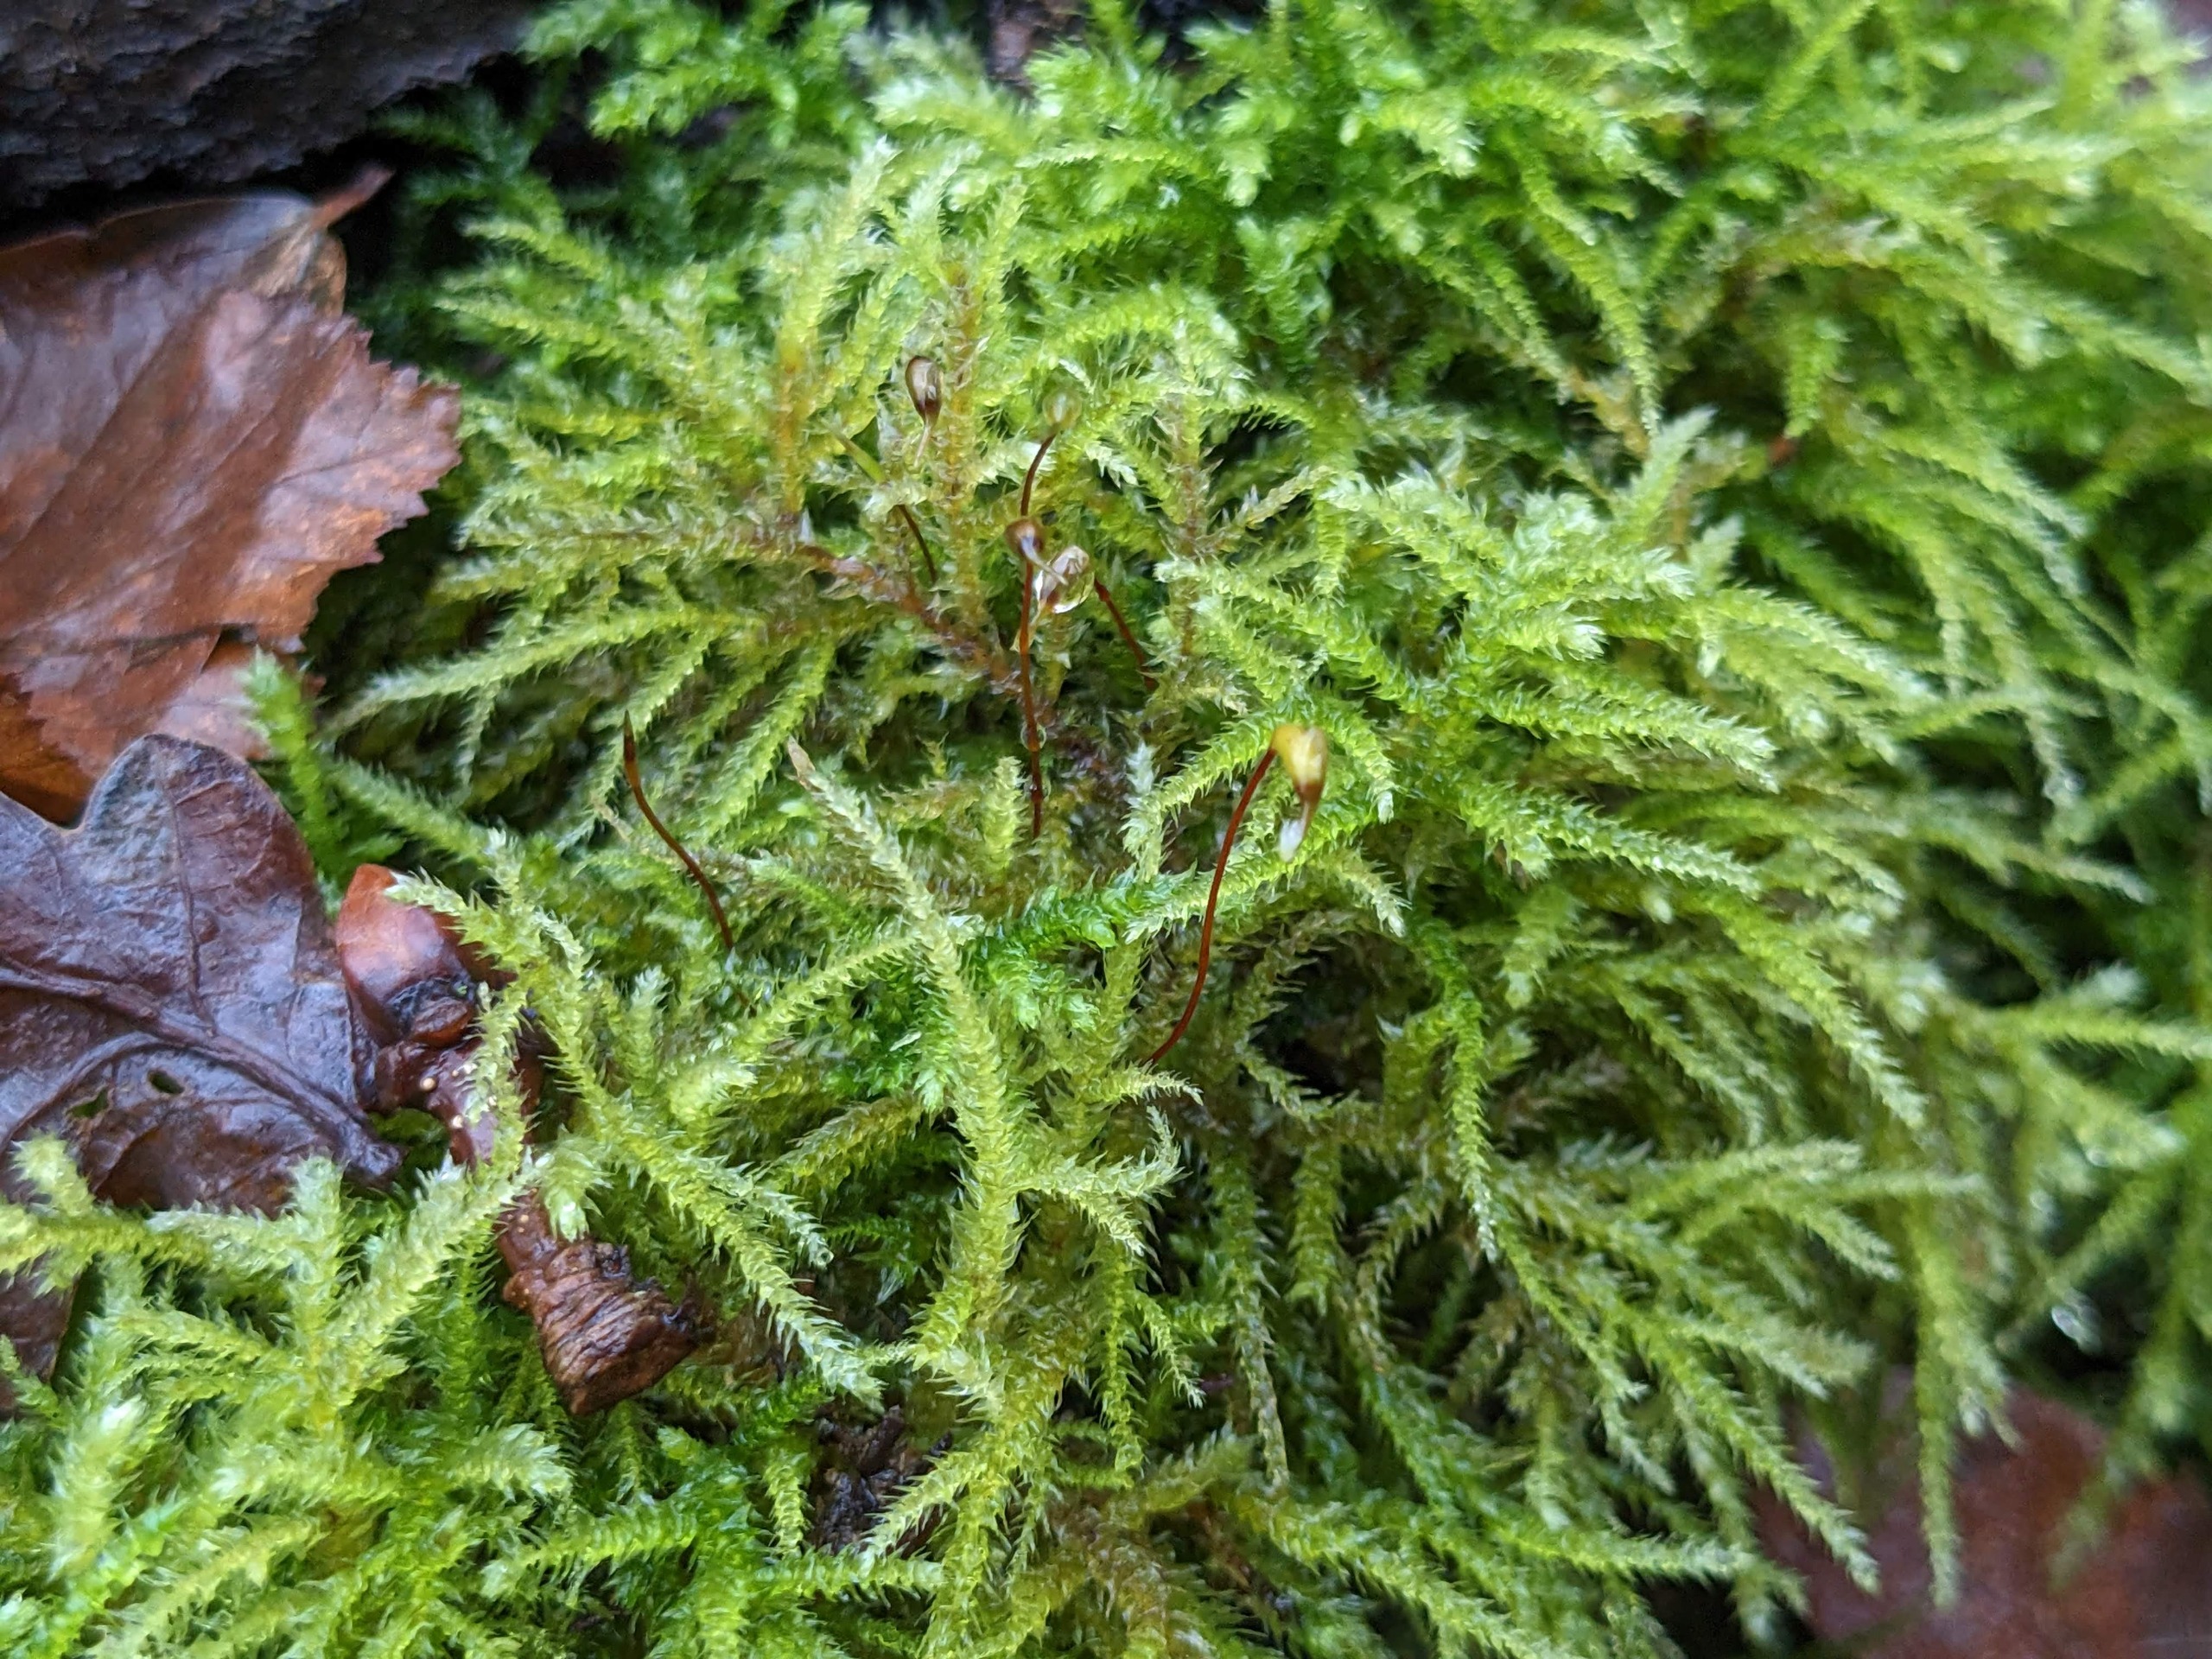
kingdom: Plantae
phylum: Bryophyta
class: Bryopsida
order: Hypnales
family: Brachytheciaceae
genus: Eurhynchium
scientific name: Eurhynchium striatum
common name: Stribet næbmos
